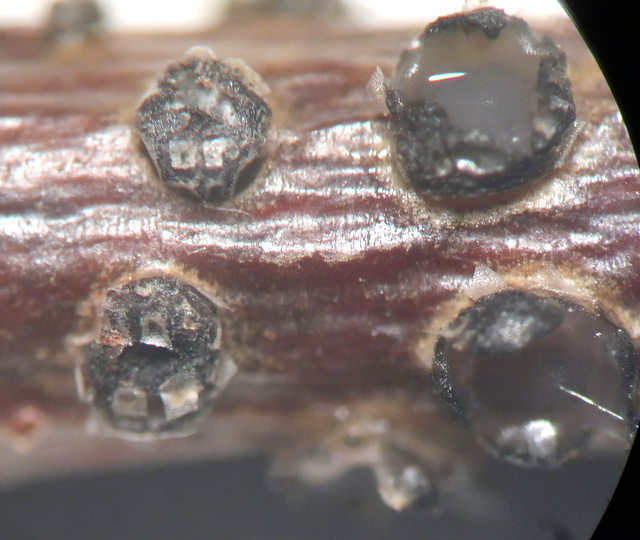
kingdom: Fungi
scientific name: Fungi
